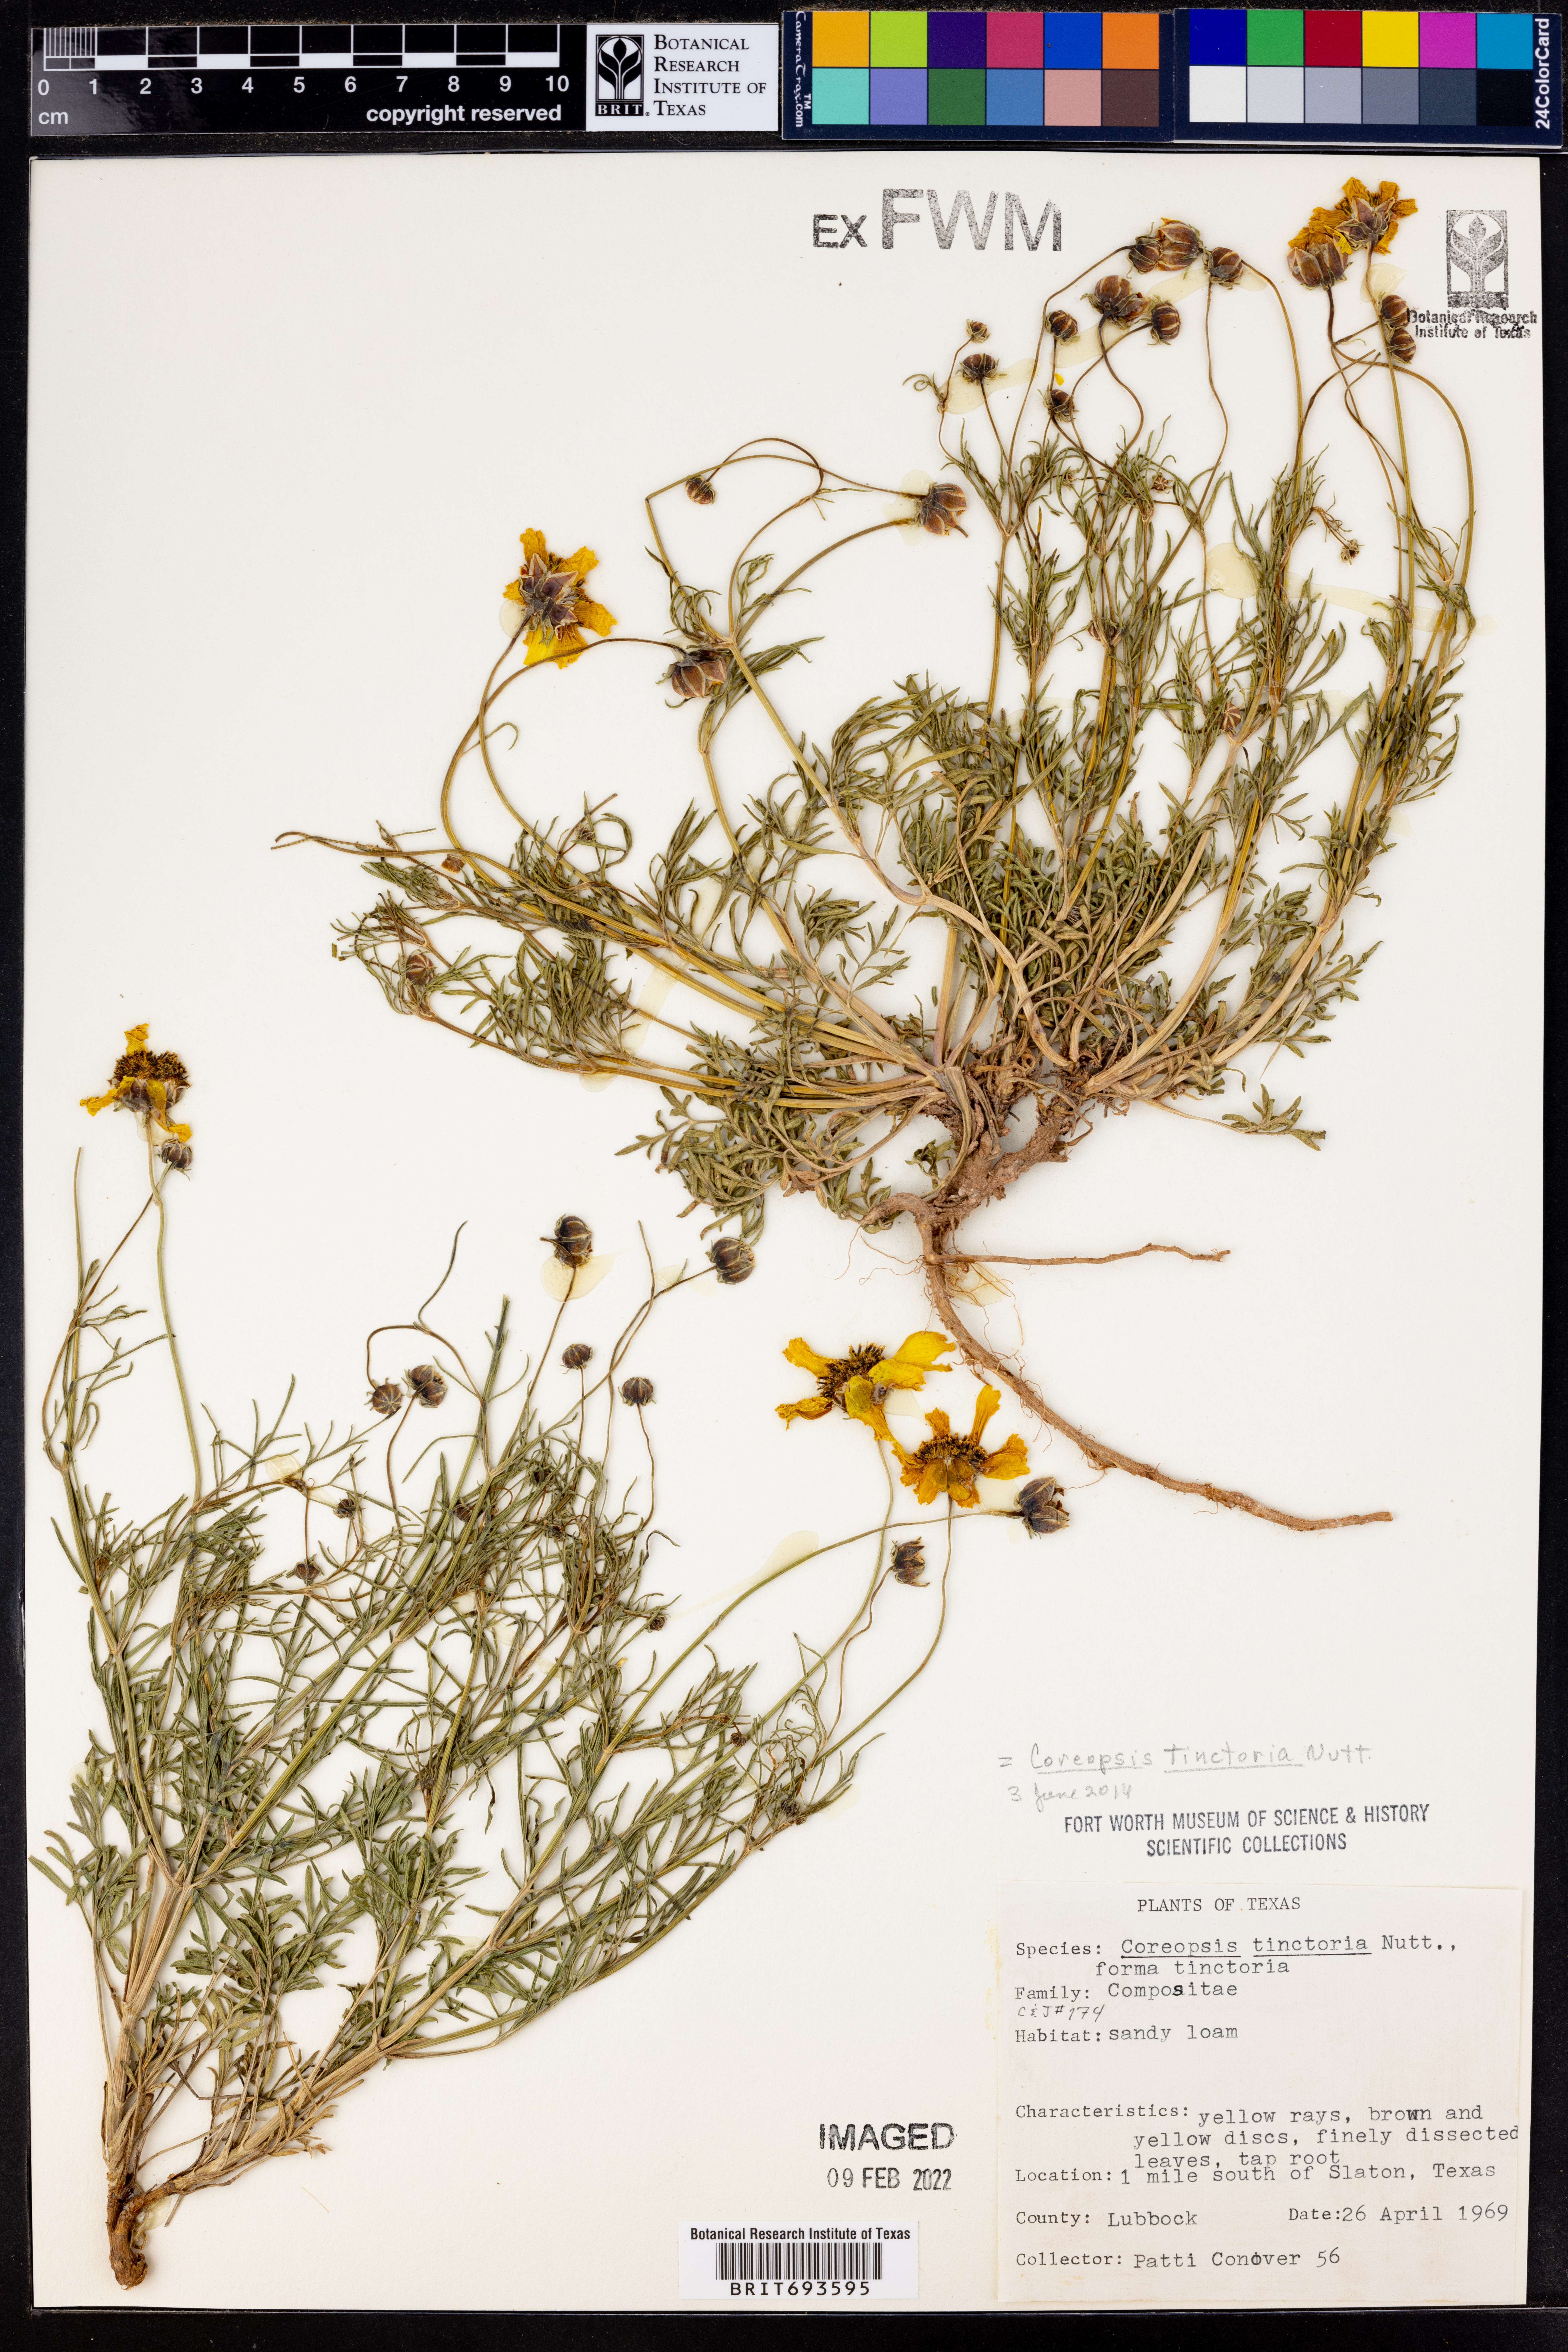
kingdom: Plantae
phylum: Tracheophyta
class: Magnoliopsida
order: Asterales
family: Asteraceae
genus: Coreopsis
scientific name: Coreopsis tinctoria
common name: Garden tickseed
